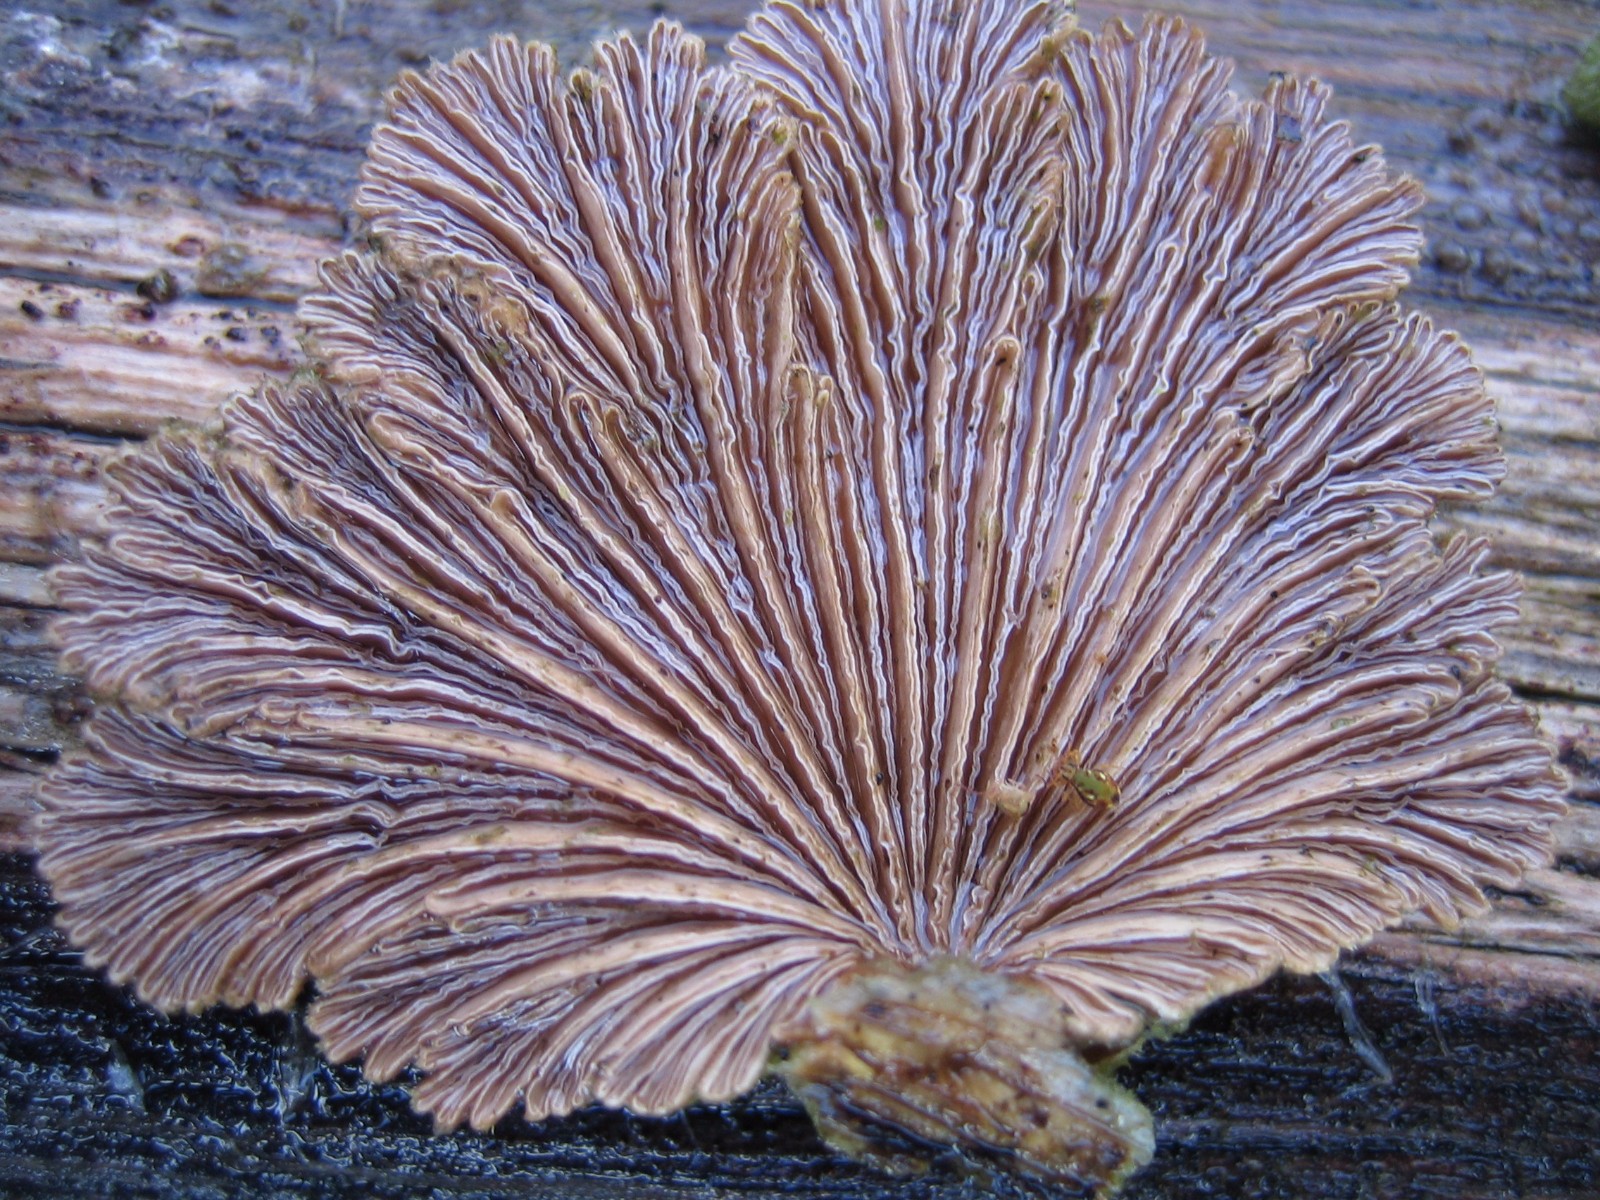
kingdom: Fungi
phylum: Basidiomycota
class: Agaricomycetes
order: Agaricales
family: Schizophyllaceae
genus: Schizophyllum
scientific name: Schizophyllum commune
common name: kløvblad
